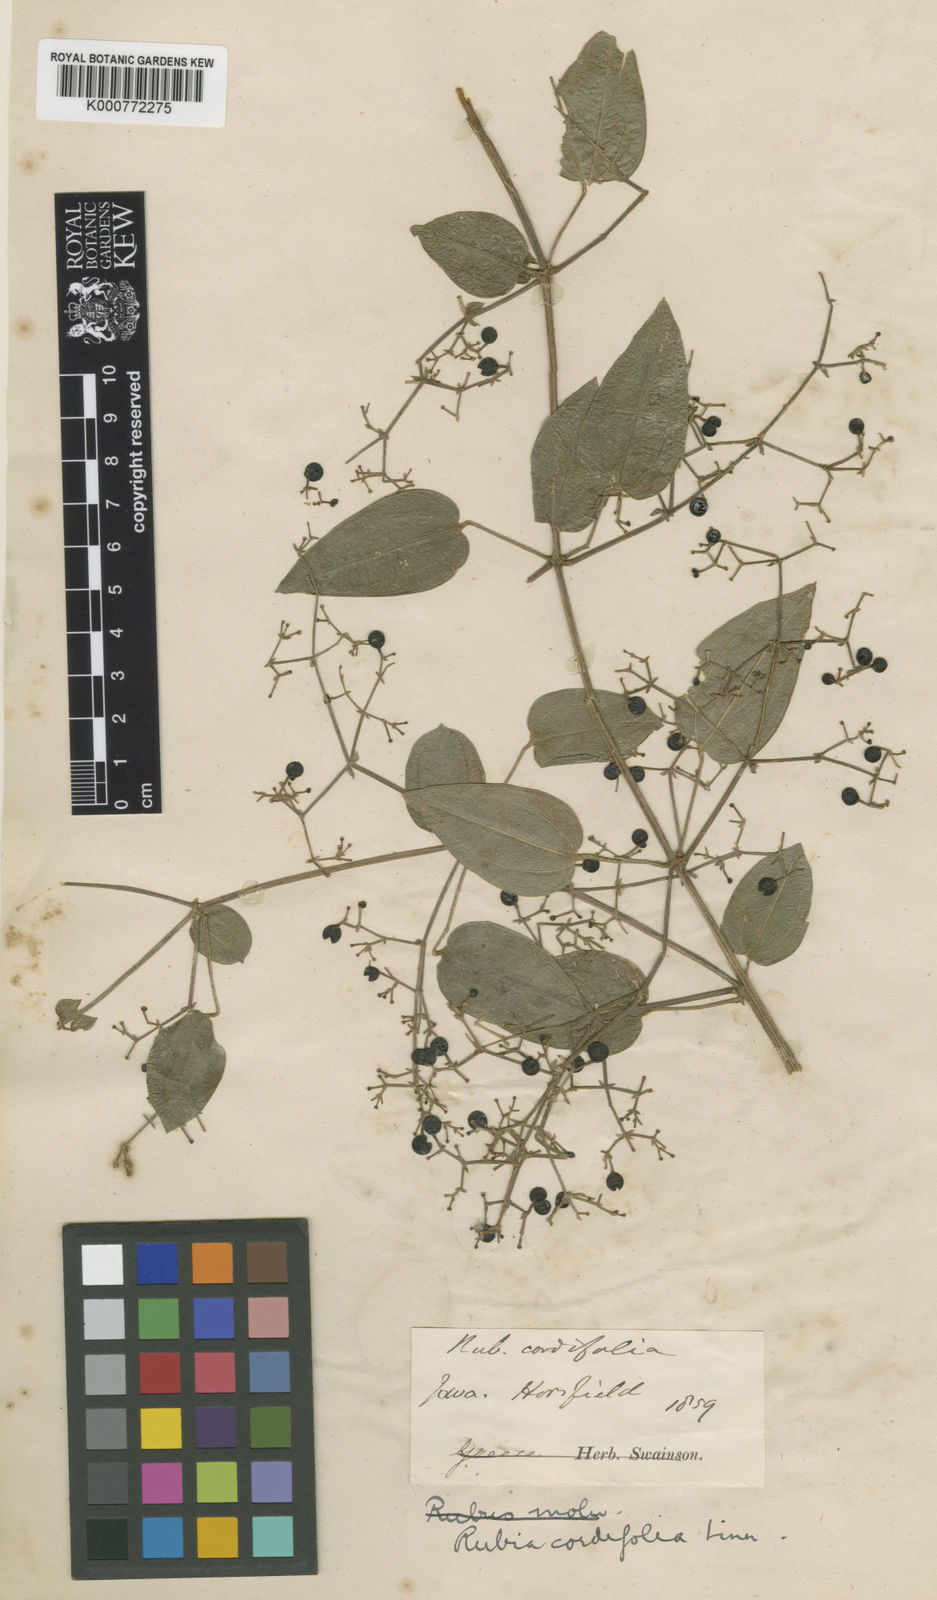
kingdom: Plantae
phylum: Tracheophyta
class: Magnoliopsida
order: Gentianales
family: Rubiaceae
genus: Rubia
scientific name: Rubia cordifolia
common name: Indian madder
